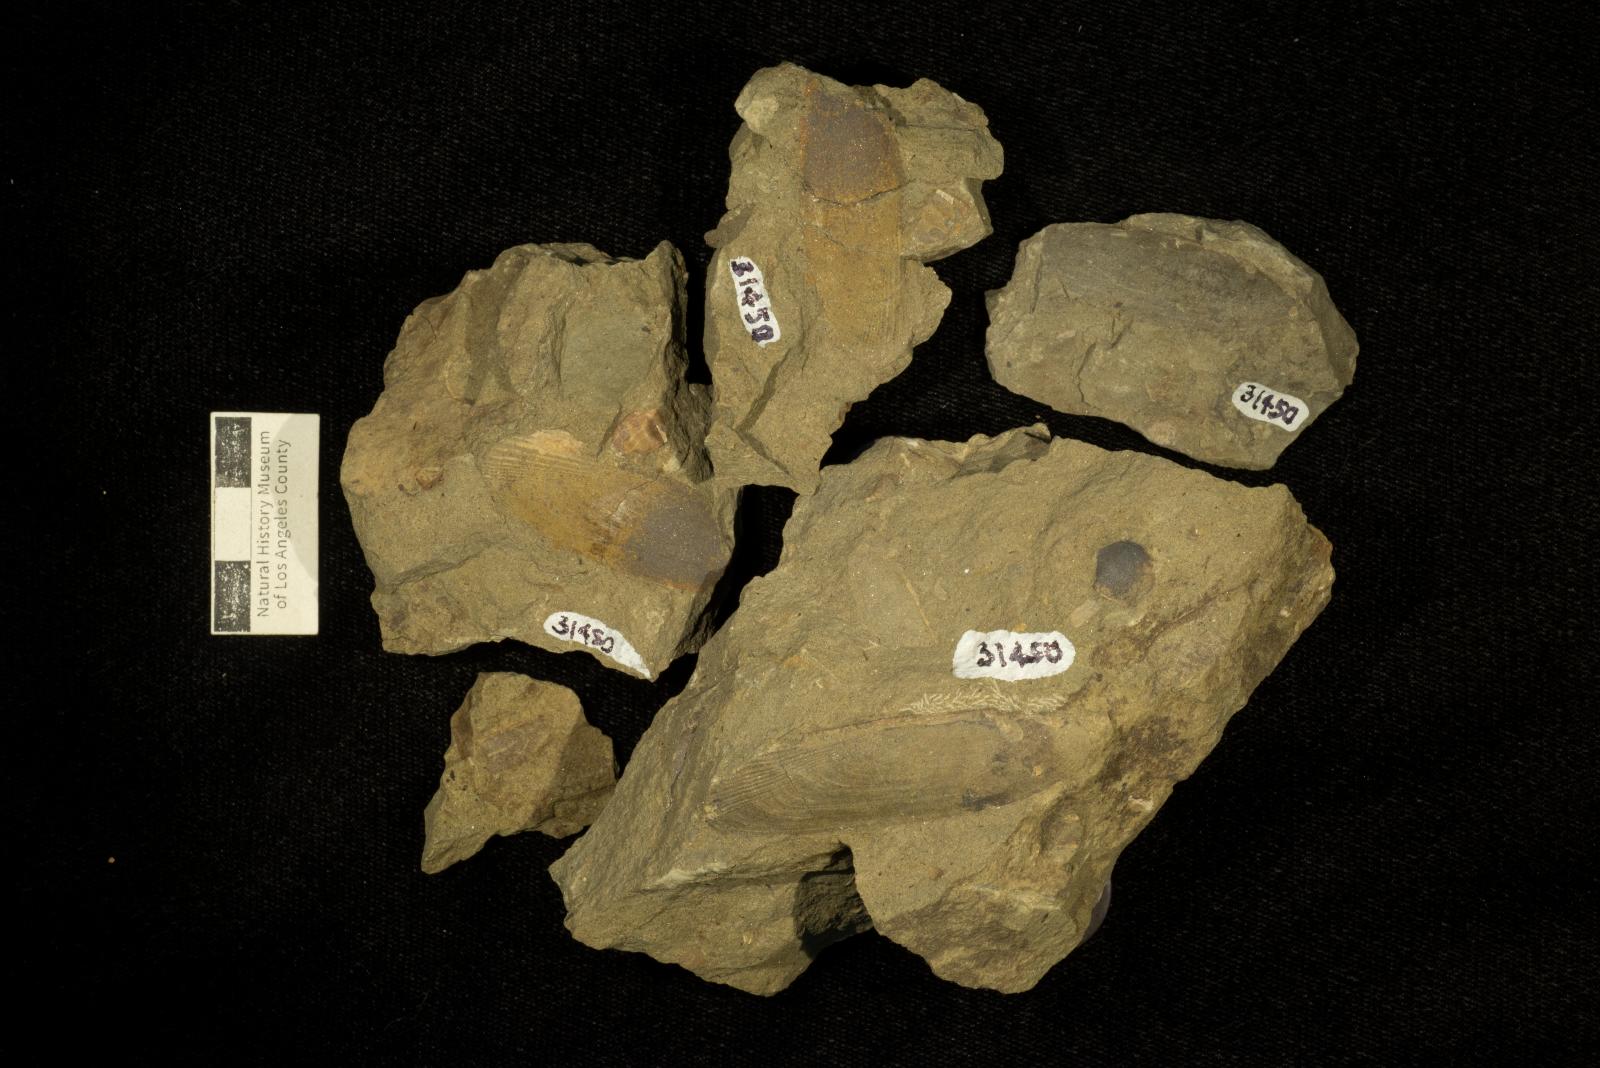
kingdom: Animalia
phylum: Mollusca
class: Bivalvia
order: Cardiida
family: Icanotiidae
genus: Icanotia
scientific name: Icanotia californica
